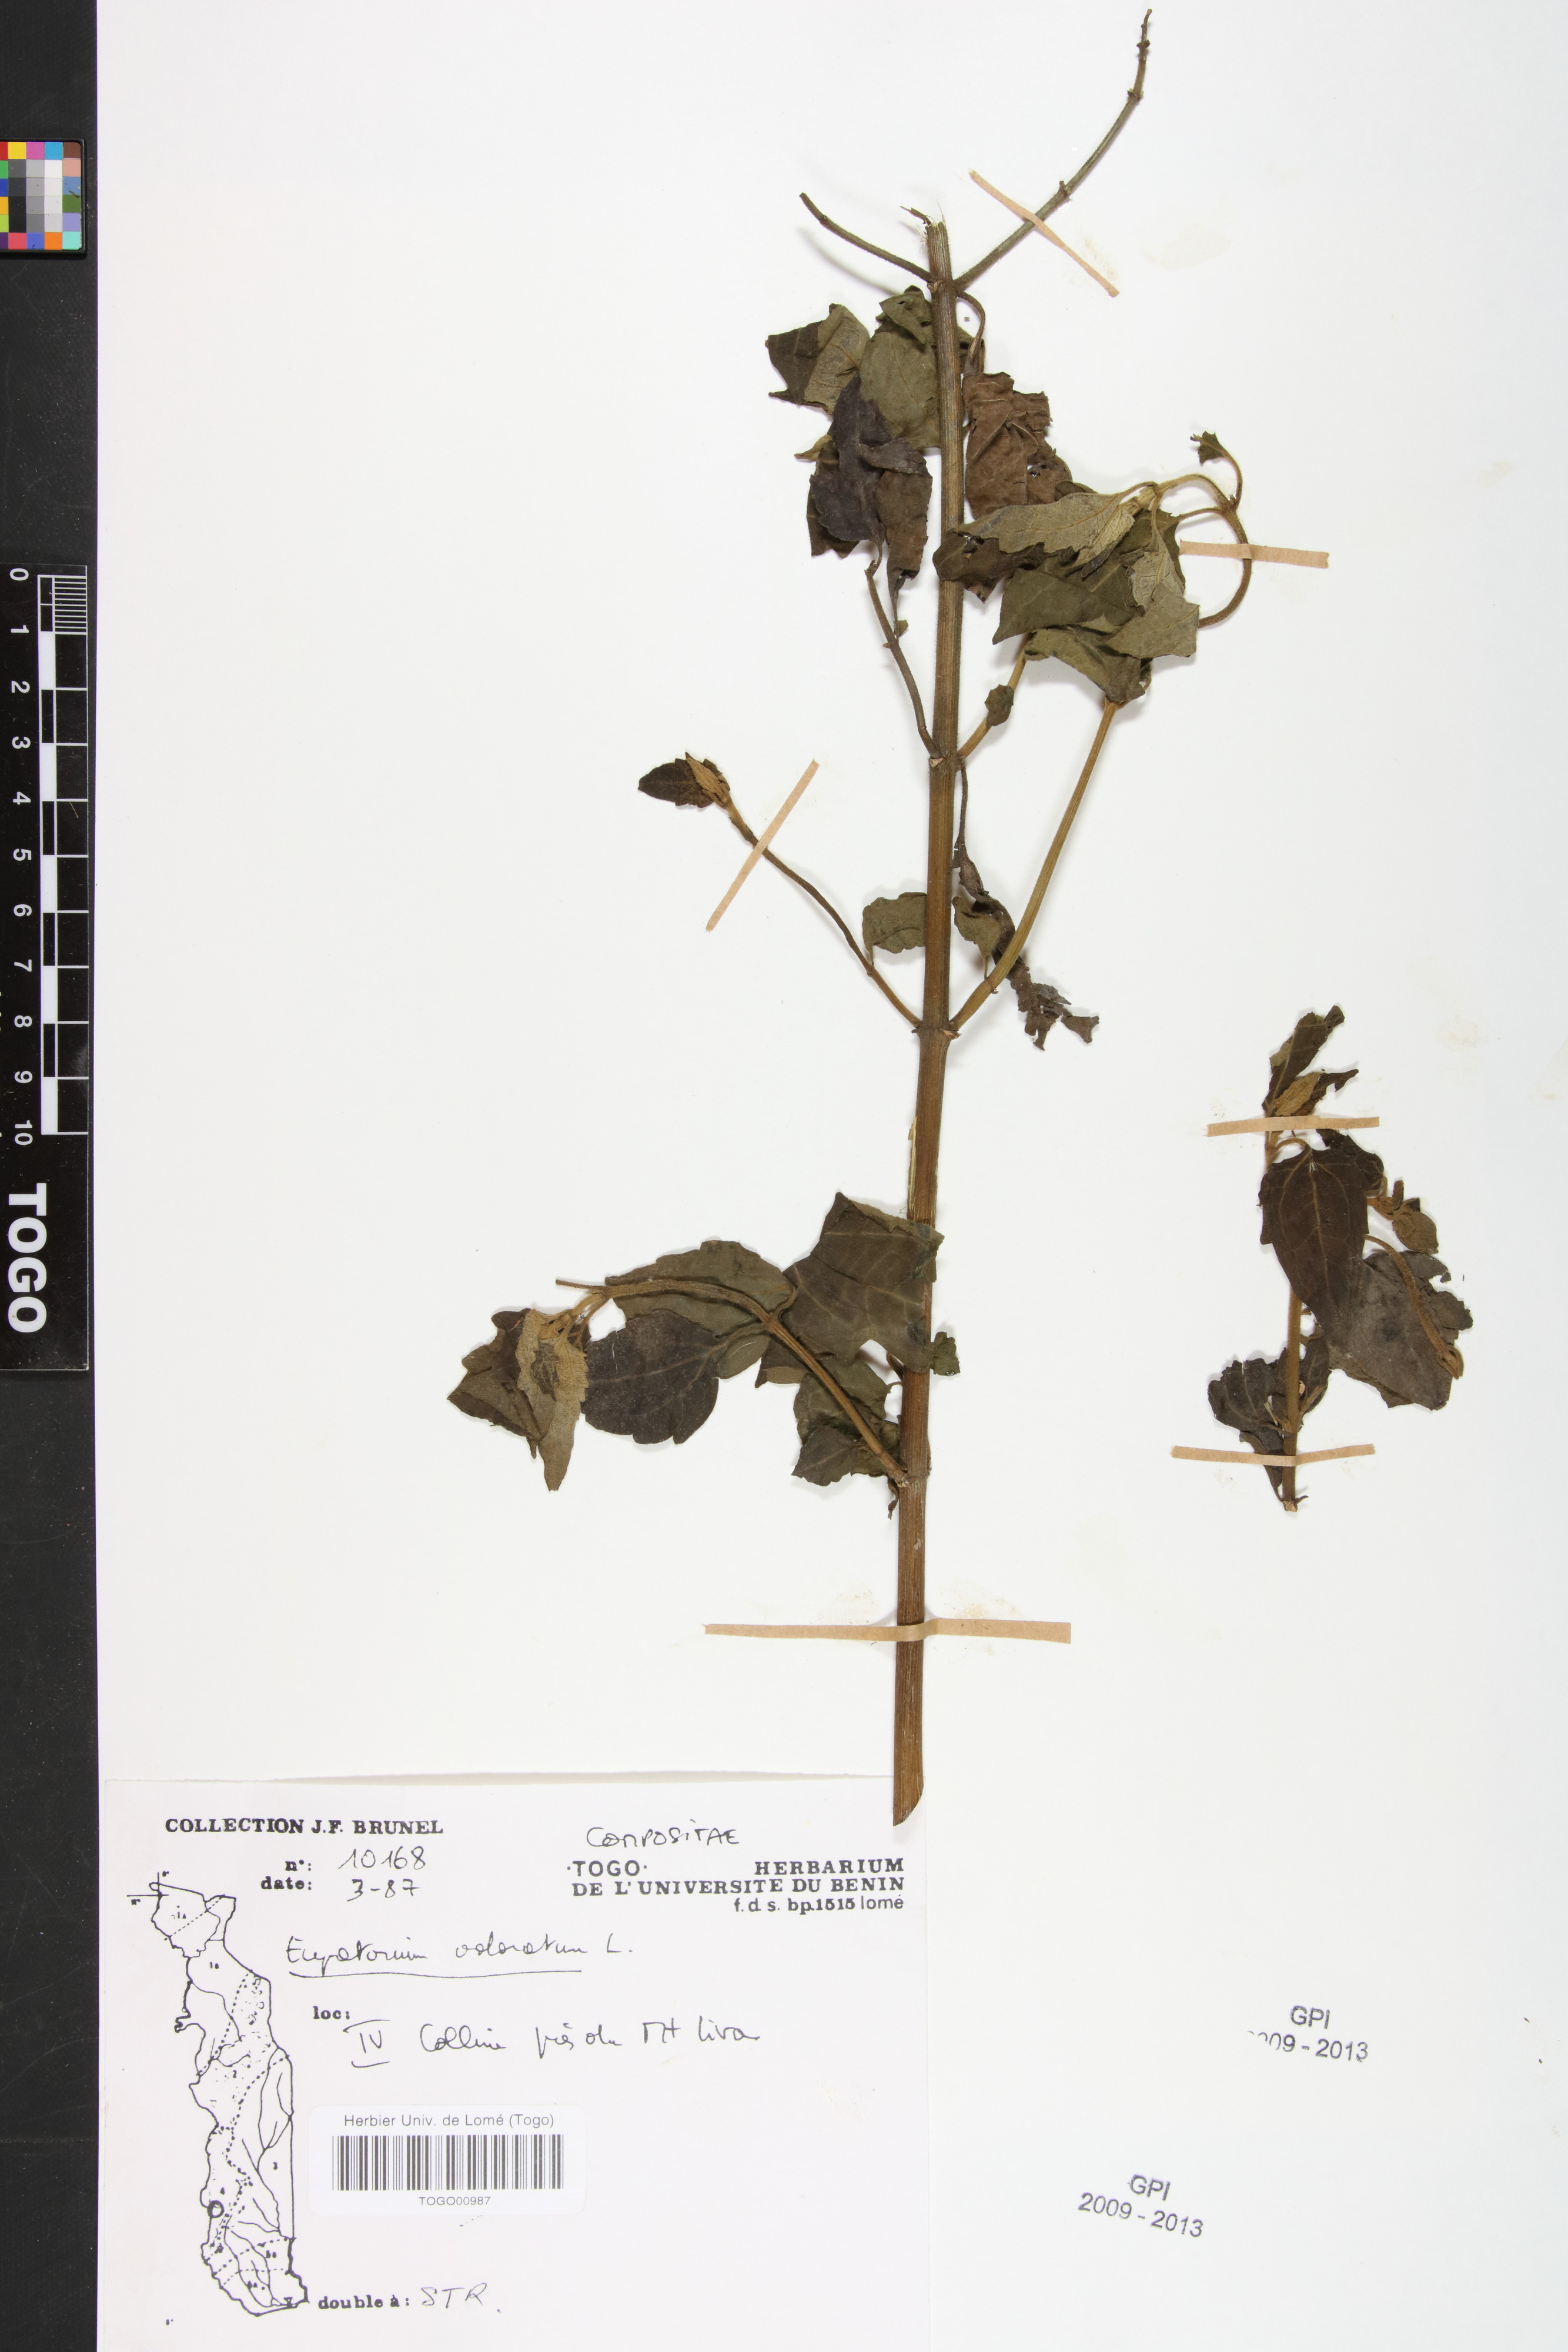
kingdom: Plantae
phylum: Tracheophyta
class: Magnoliopsida
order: Asterales
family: Asteraceae
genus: Chromolaena
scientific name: Chromolaena odorata
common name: Siamweed
